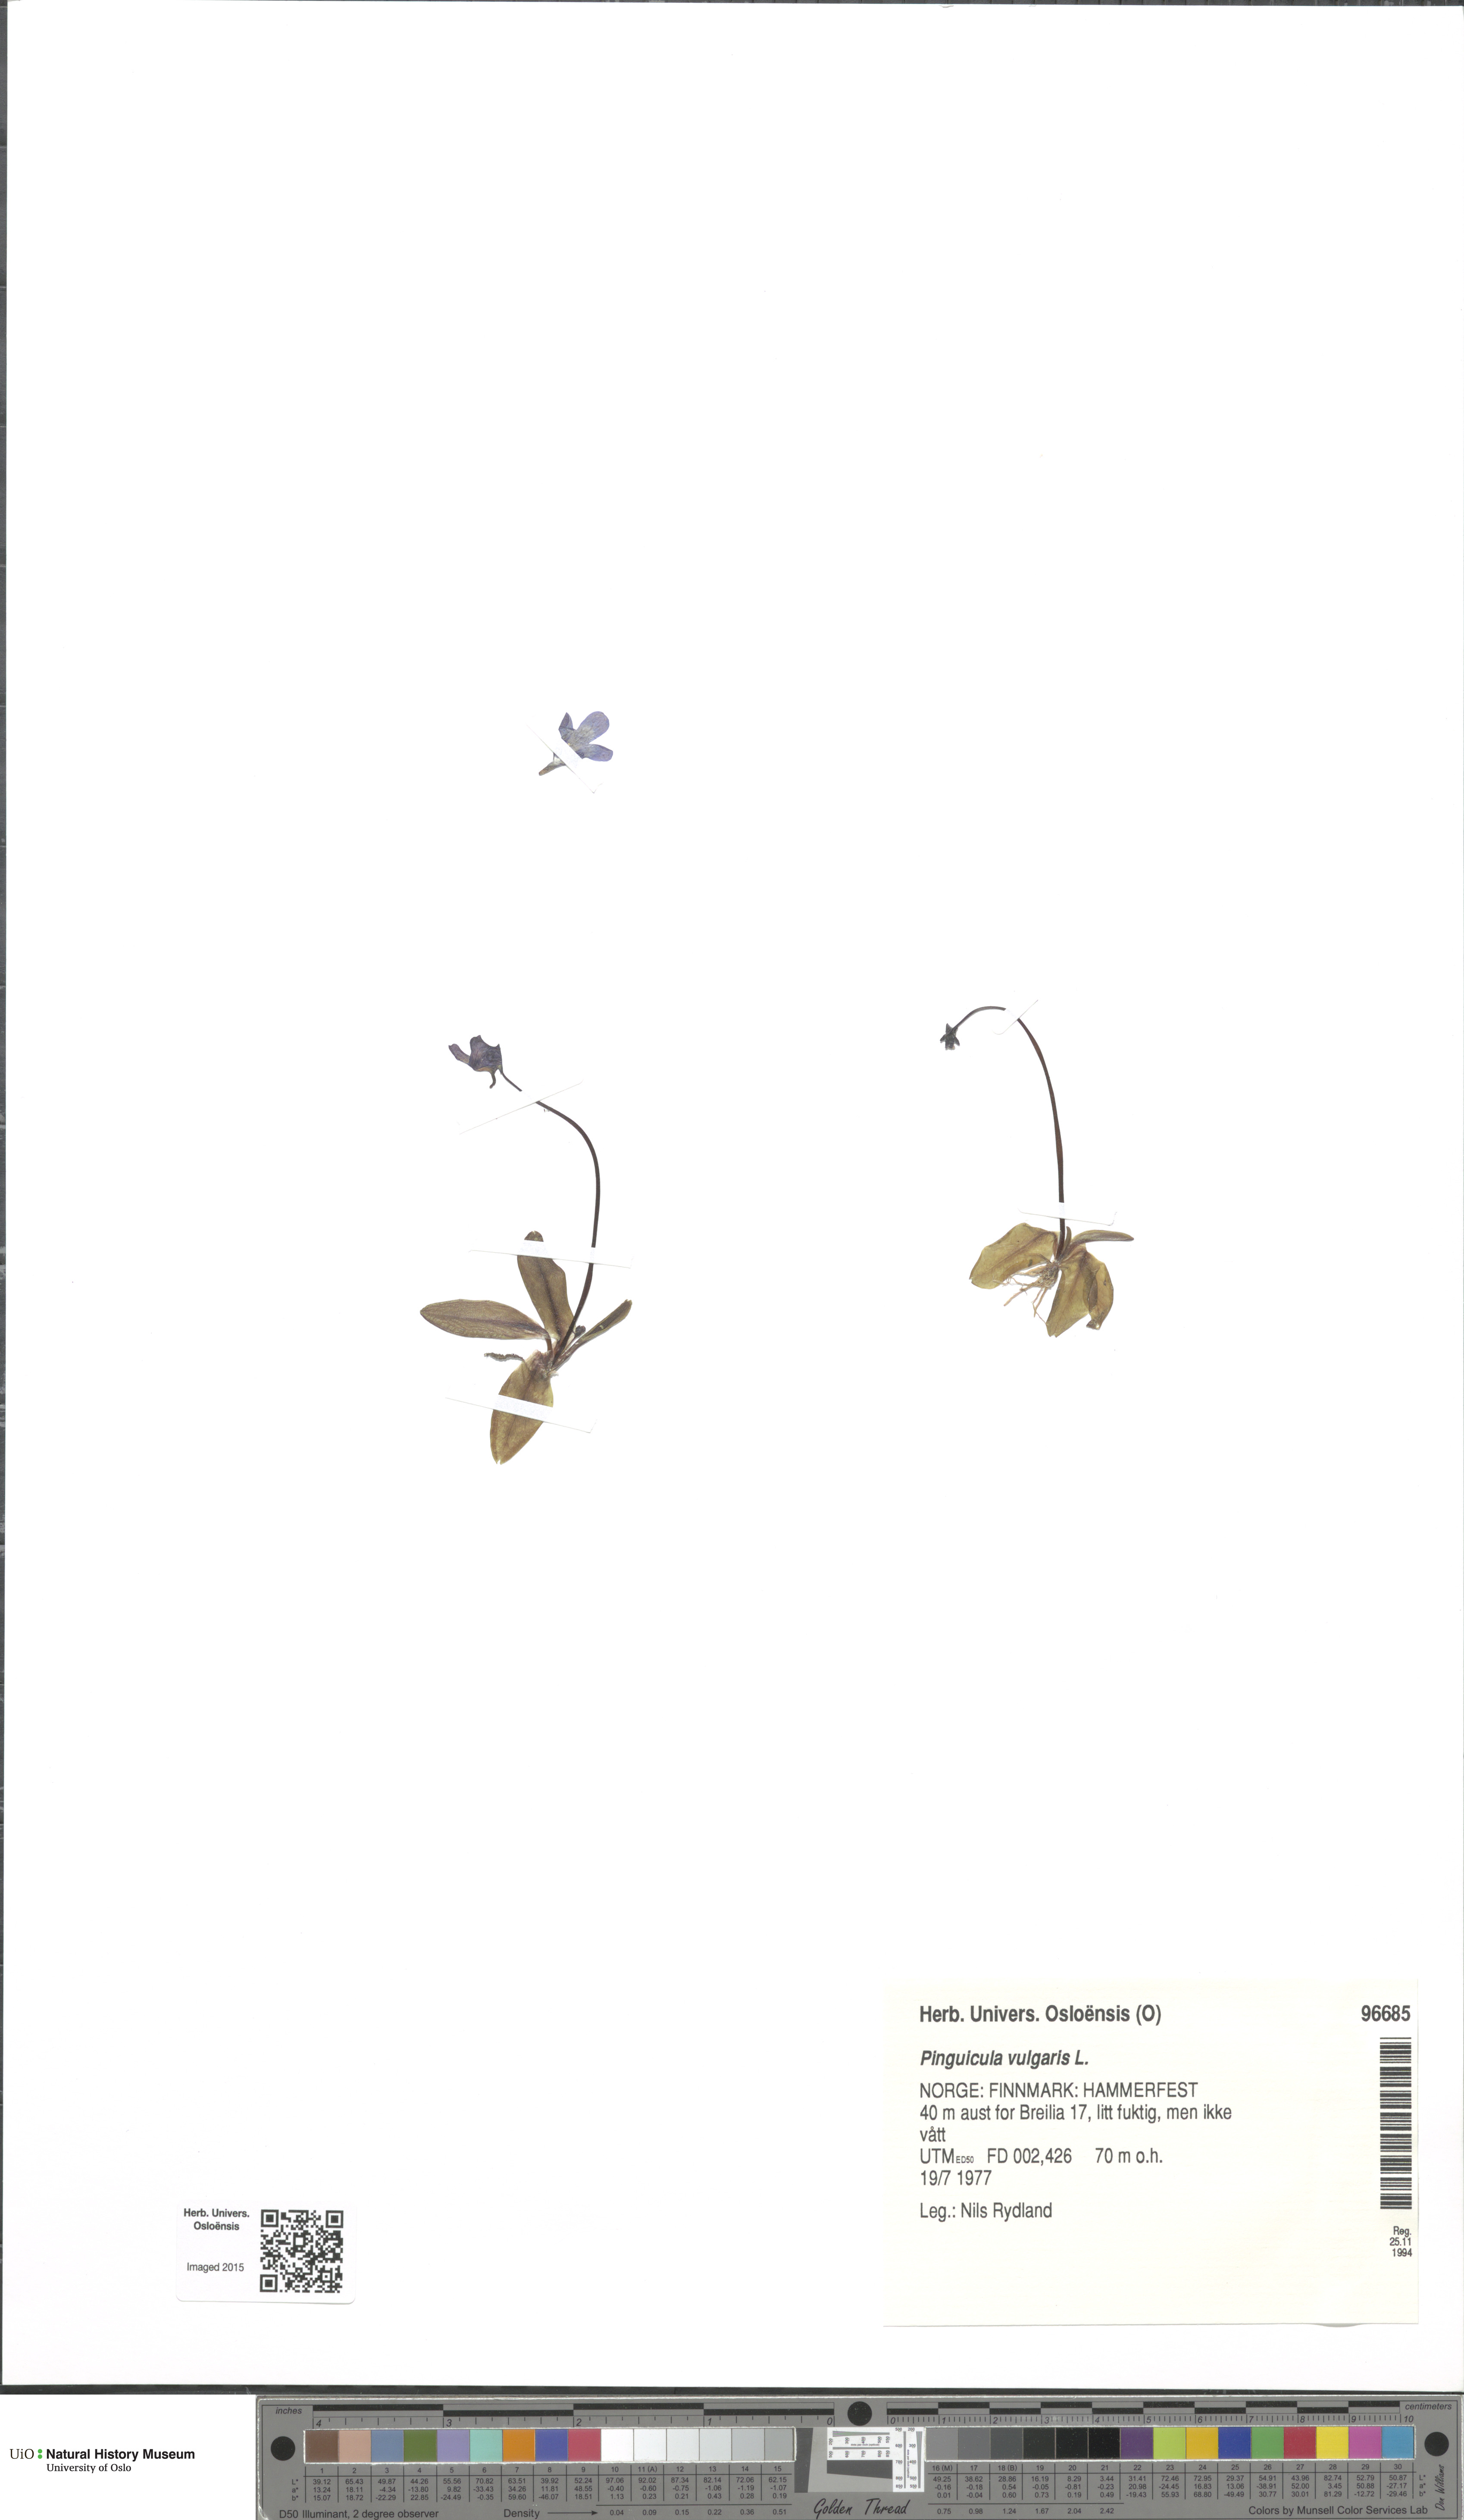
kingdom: Plantae
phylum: Tracheophyta
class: Magnoliopsida
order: Lamiales
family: Lentibulariaceae
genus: Pinguicula
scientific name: Pinguicula vulgaris
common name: Common butterwort
